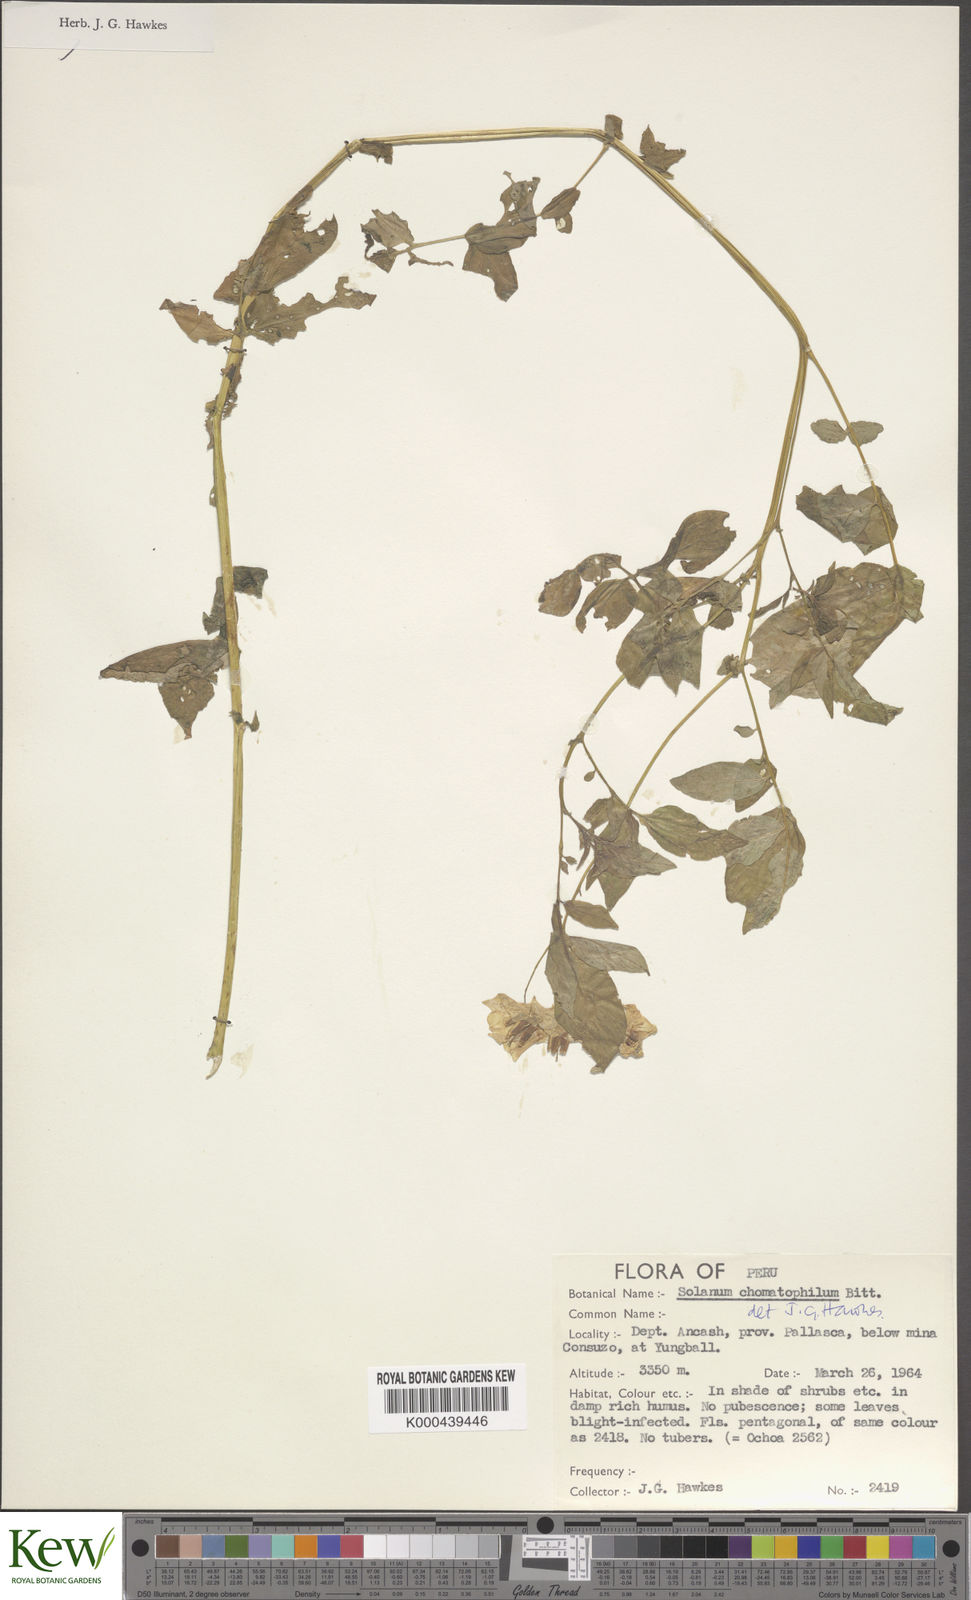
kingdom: Plantae
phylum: Tracheophyta
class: Magnoliopsida
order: Solanales
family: Solanaceae
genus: Solanum
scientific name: Solanum chomatophilum
